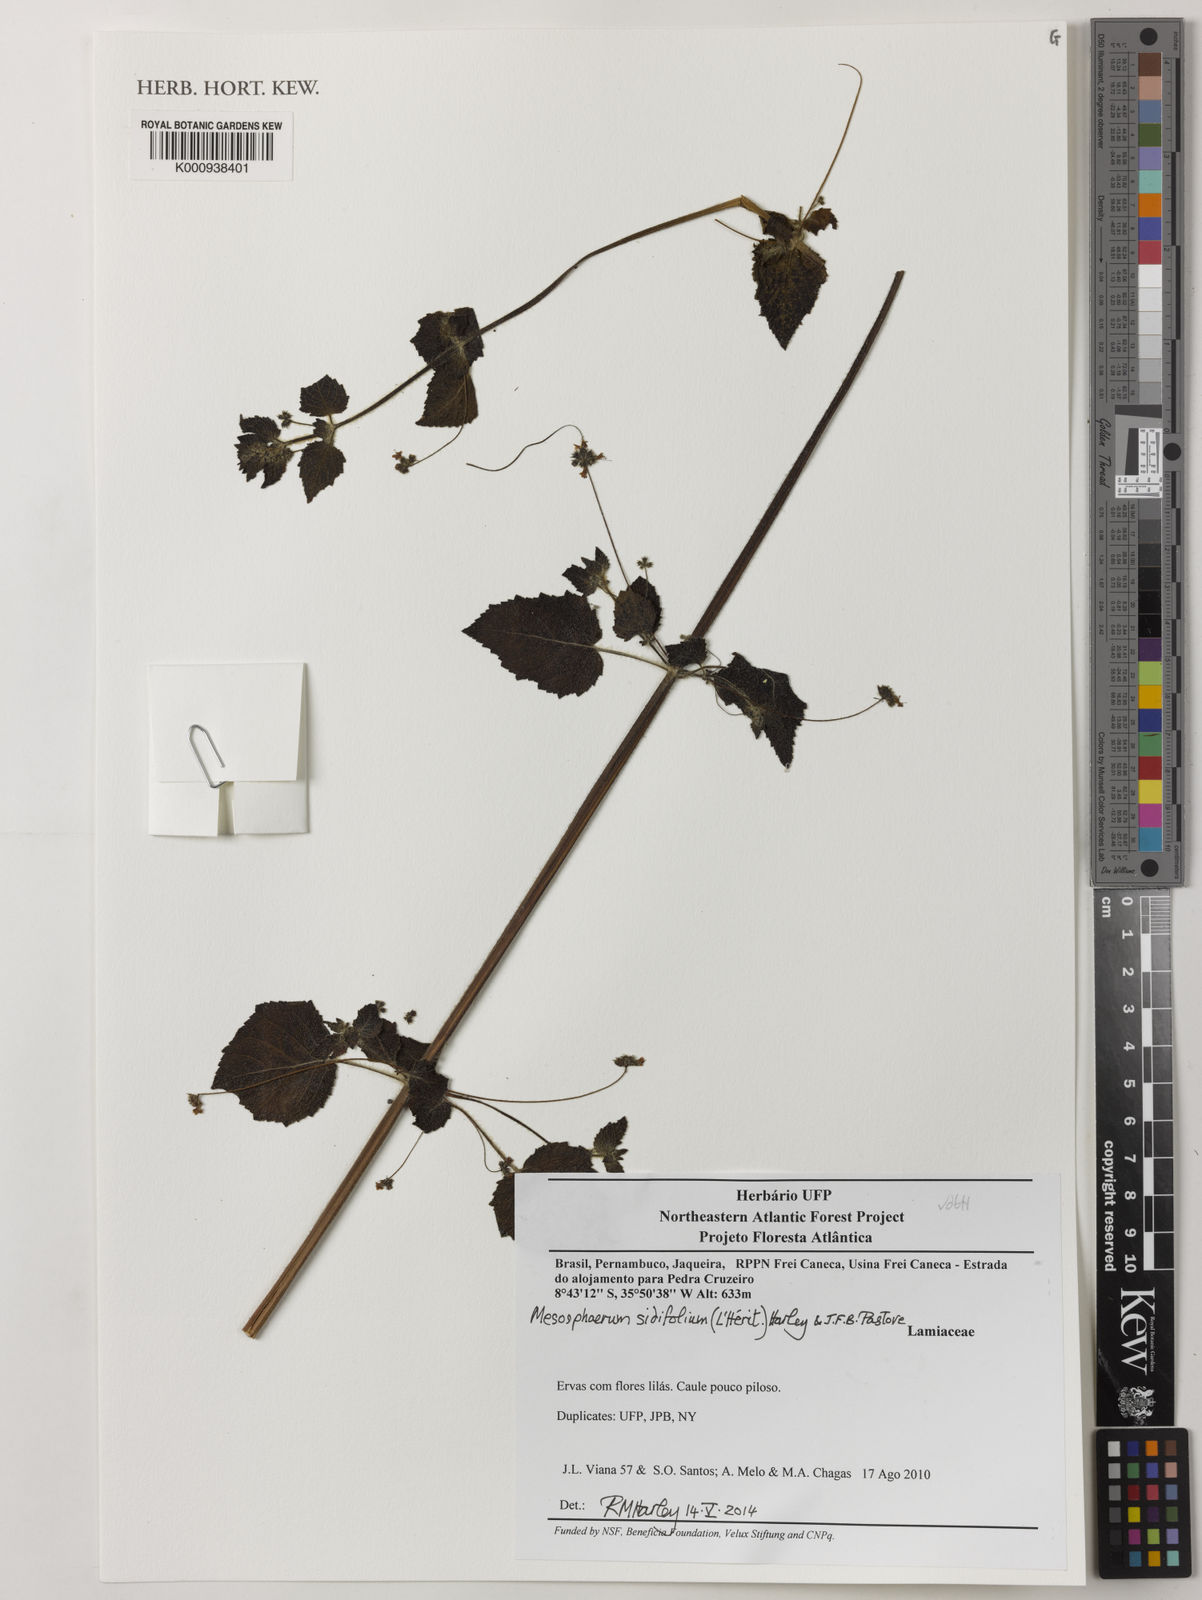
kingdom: Plantae
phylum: Tracheophyta
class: Magnoliopsida
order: Lamiales
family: Lamiaceae
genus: Mesosphaerum
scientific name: Mesosphaerum sidifolium
